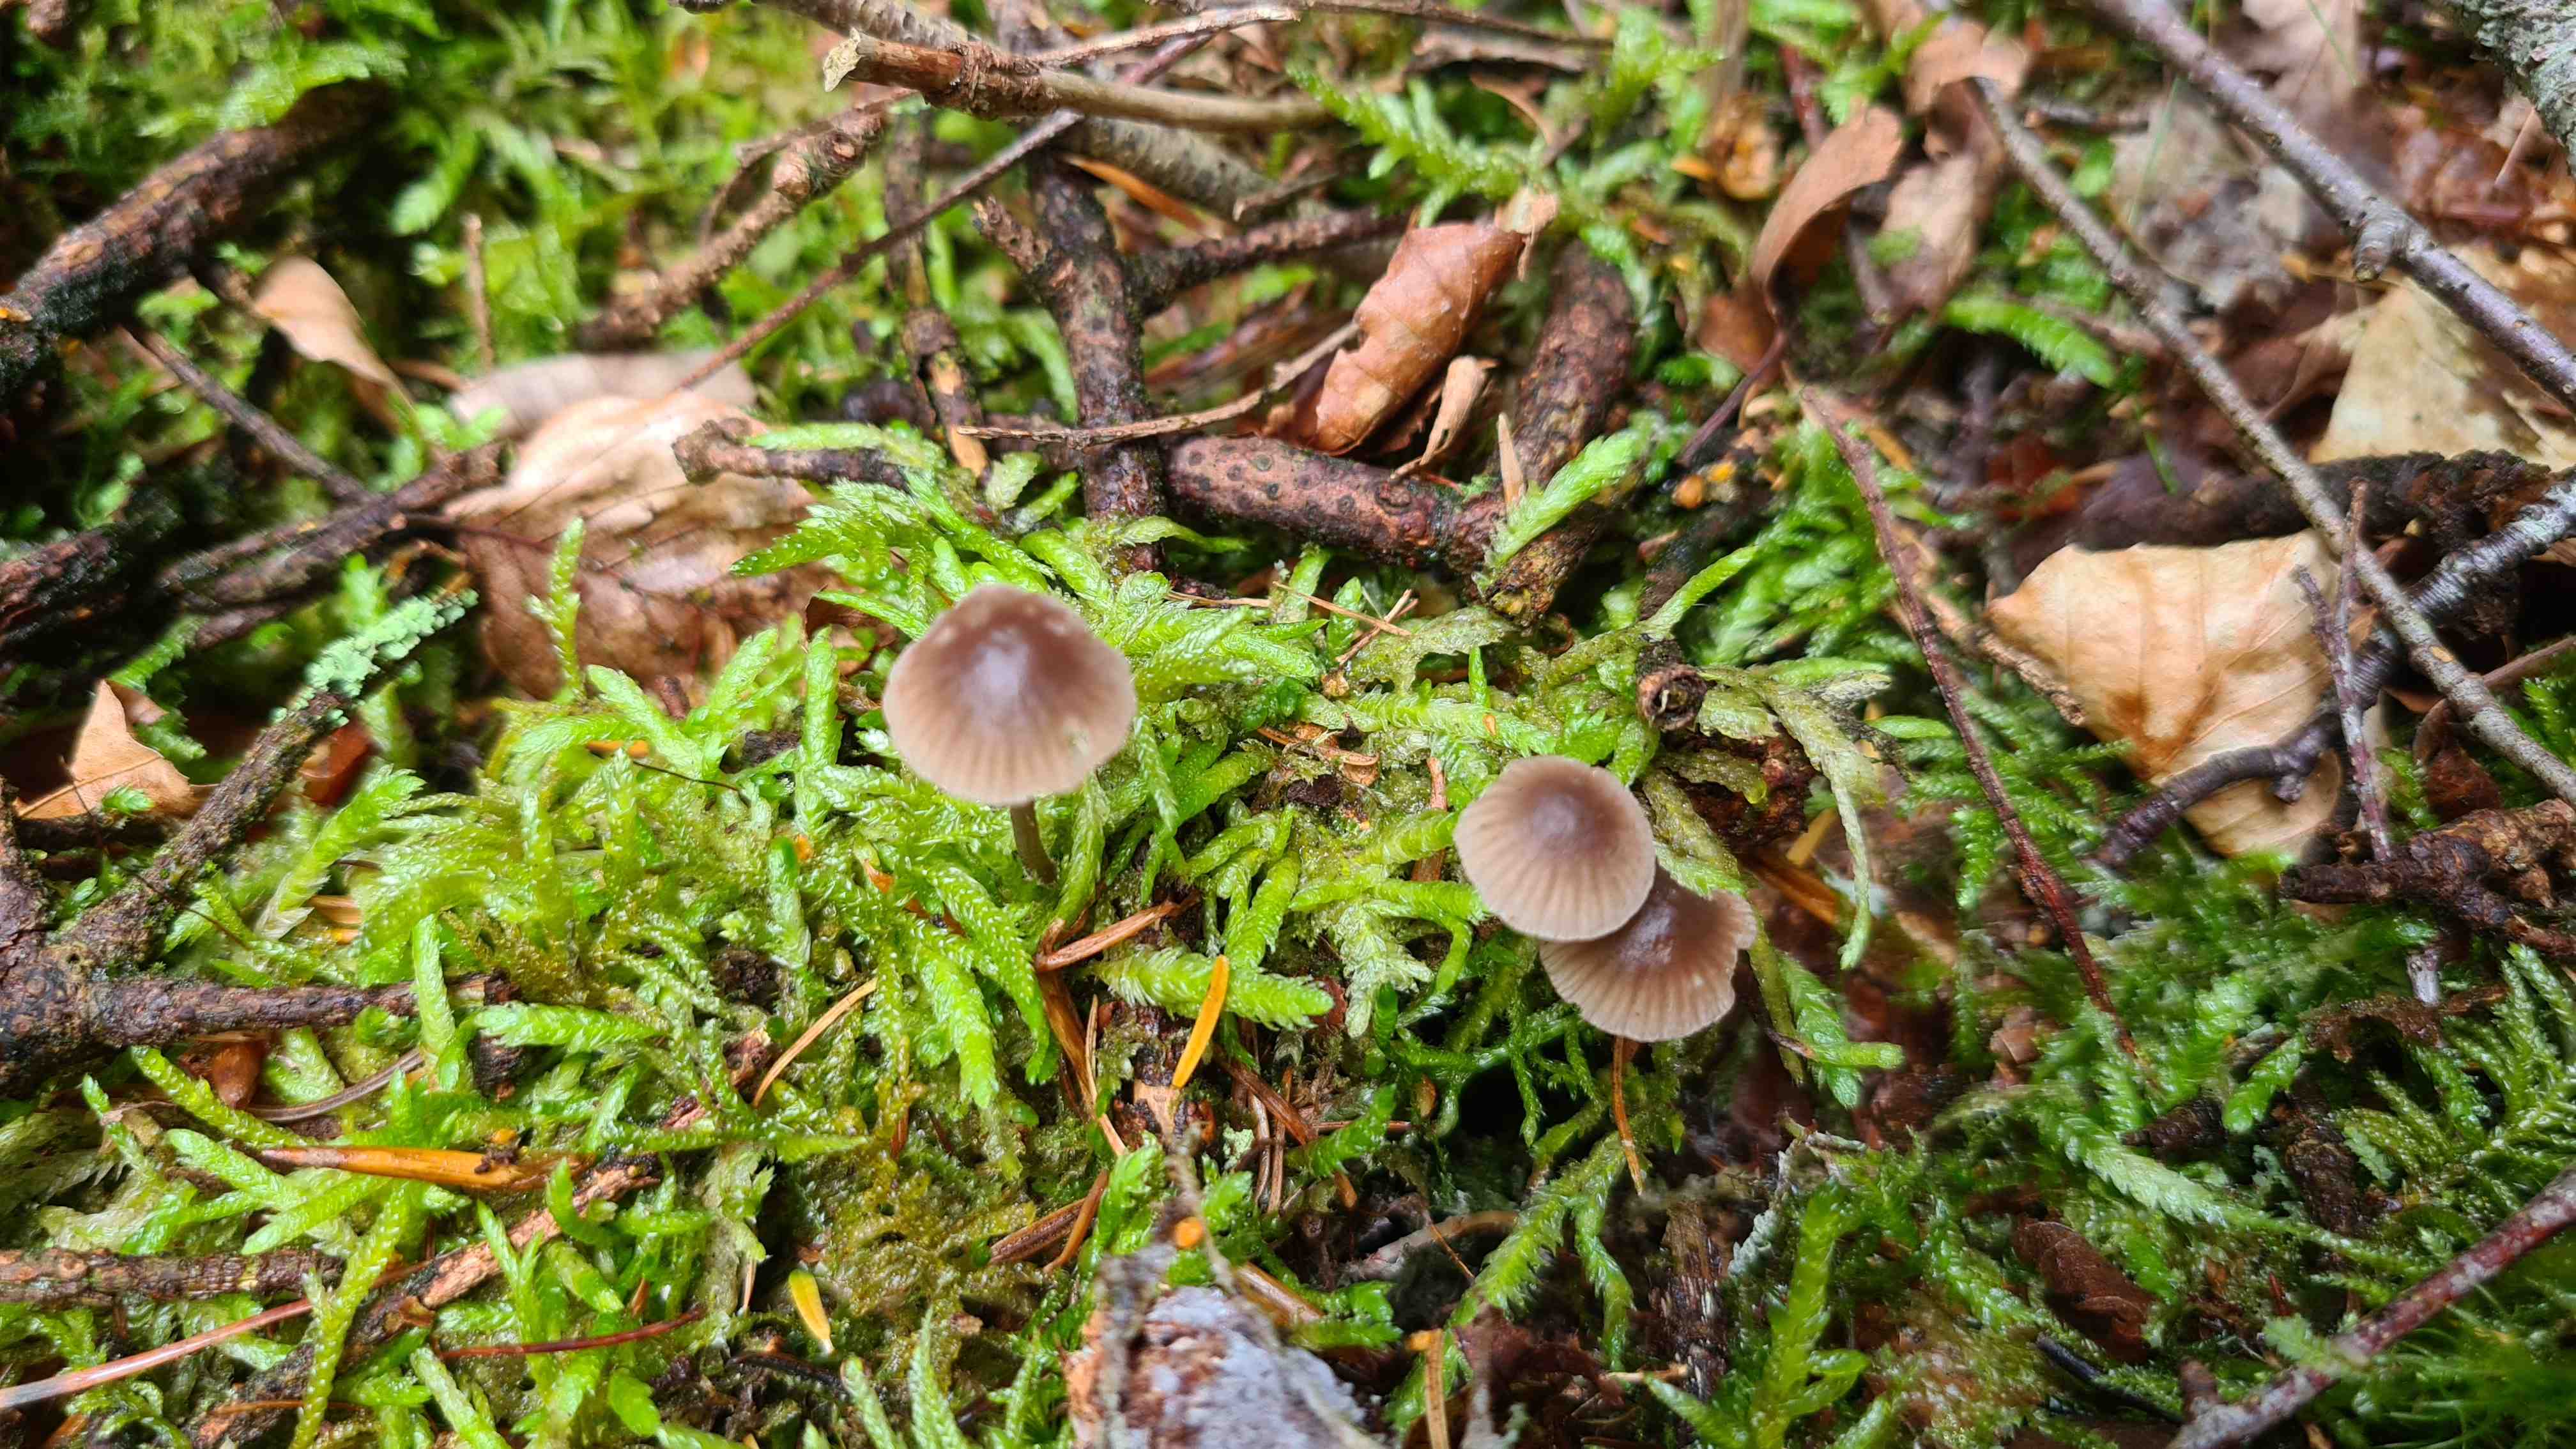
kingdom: Fungi
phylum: Basidiomycota
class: Agaricomycetes
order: Agaricales
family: Mycenaceae
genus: Mycena
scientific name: Mycena rubromarginata
